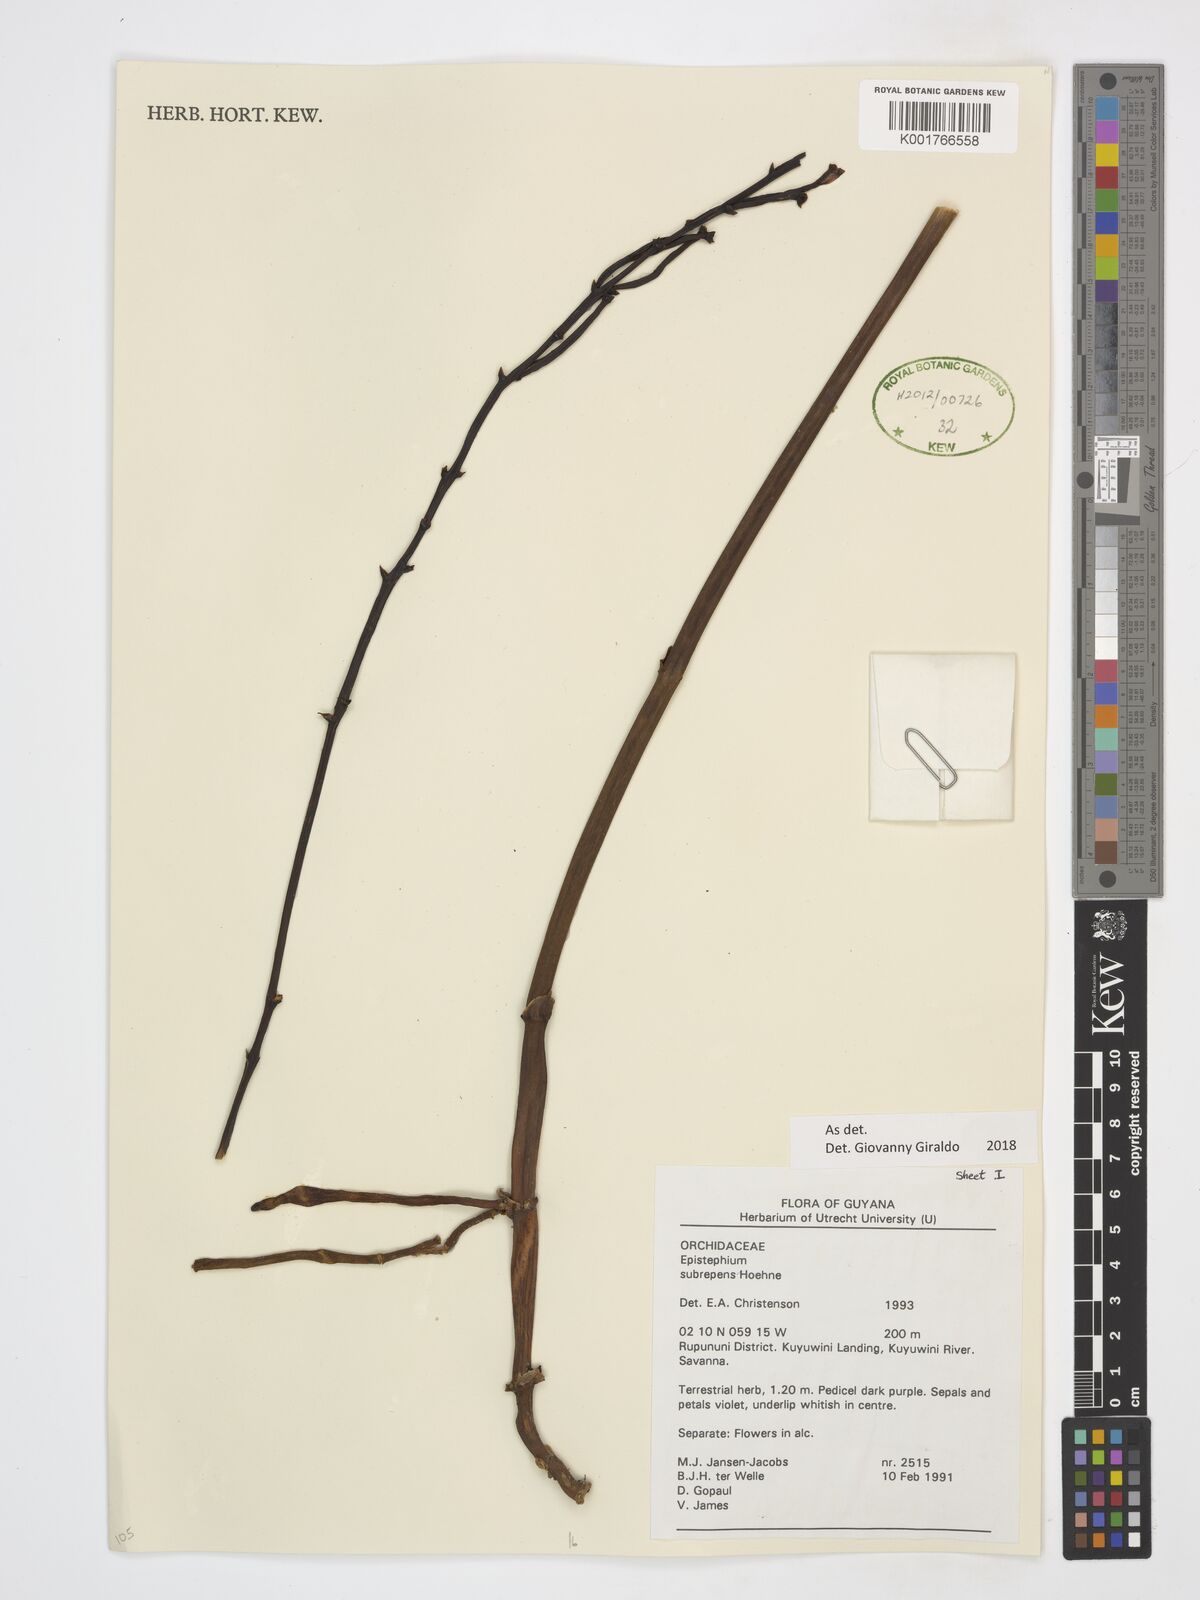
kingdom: Plantae
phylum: Tracheophyta
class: Liliopsida
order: Asparagales
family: Orchidaceae
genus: Epistephium
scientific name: Epistephium subrepens
